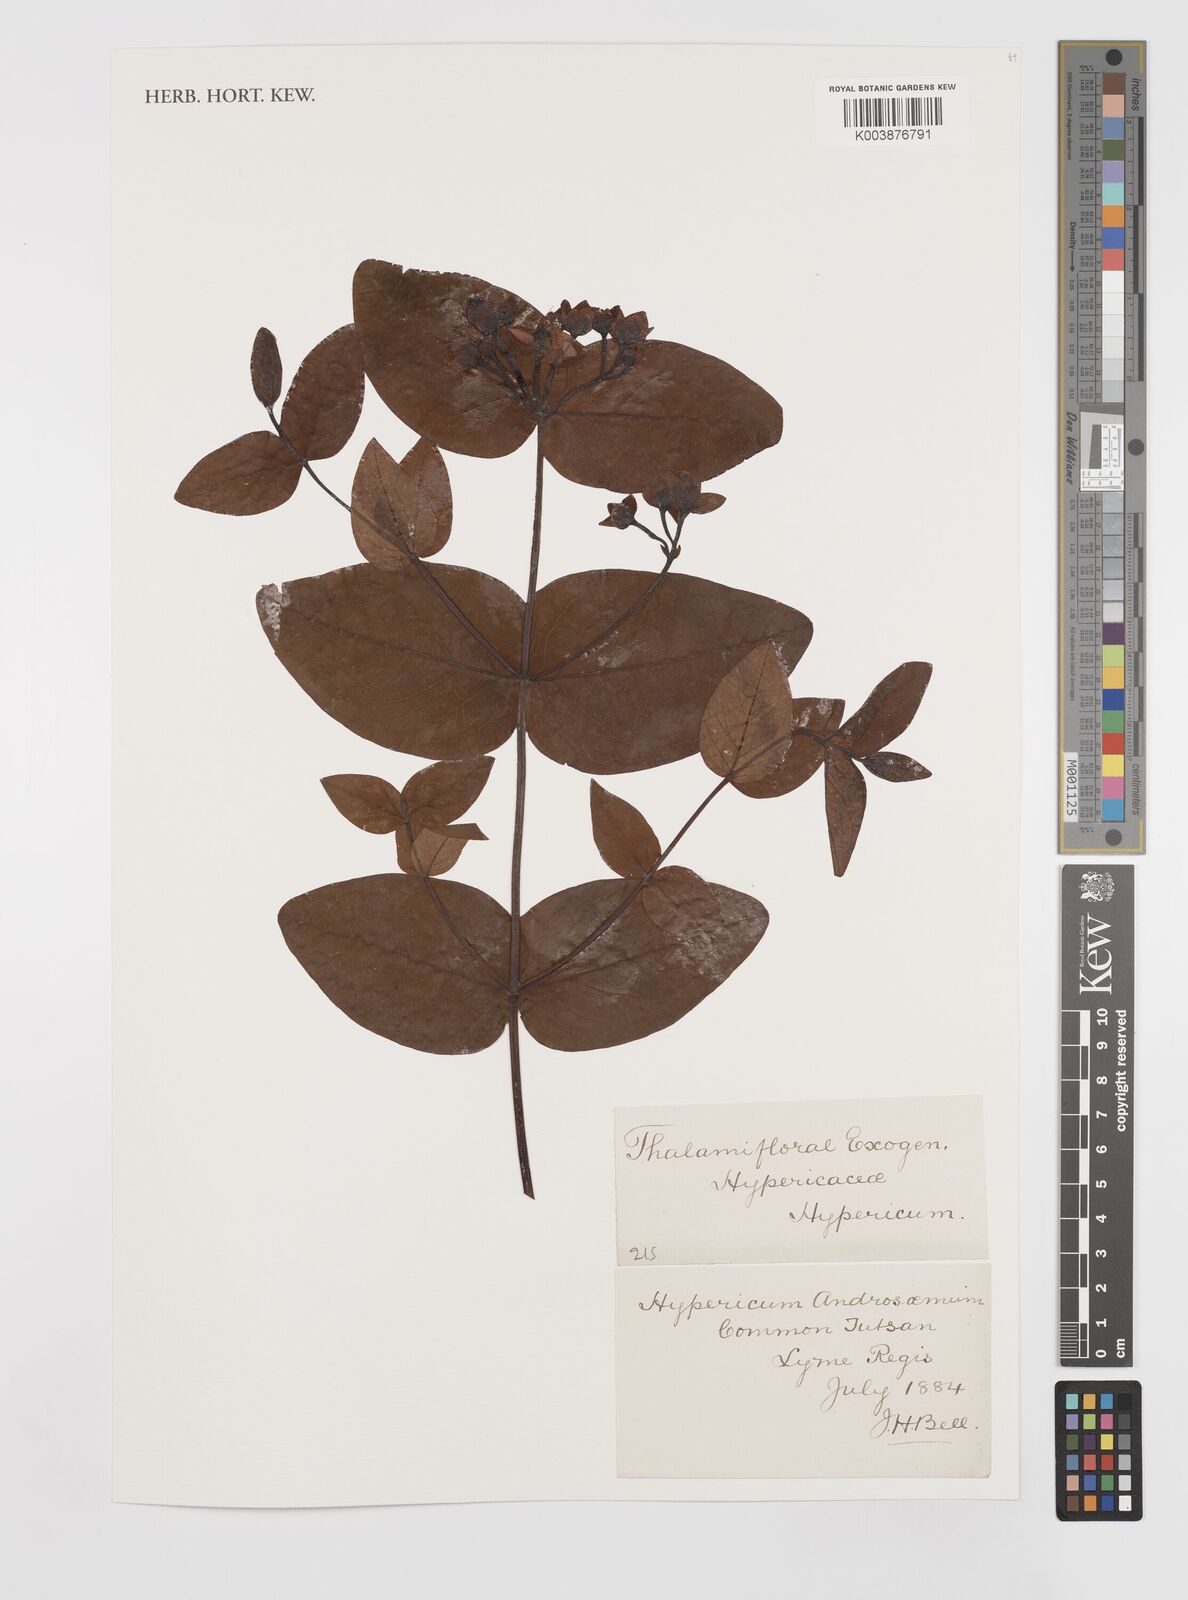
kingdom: Plantae
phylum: Tracheophyta
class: Magnoliopsida
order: Malpighiales
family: Hypericaceae
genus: Hypericum
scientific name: Hypericum androsaemum
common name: Sweet-amber
